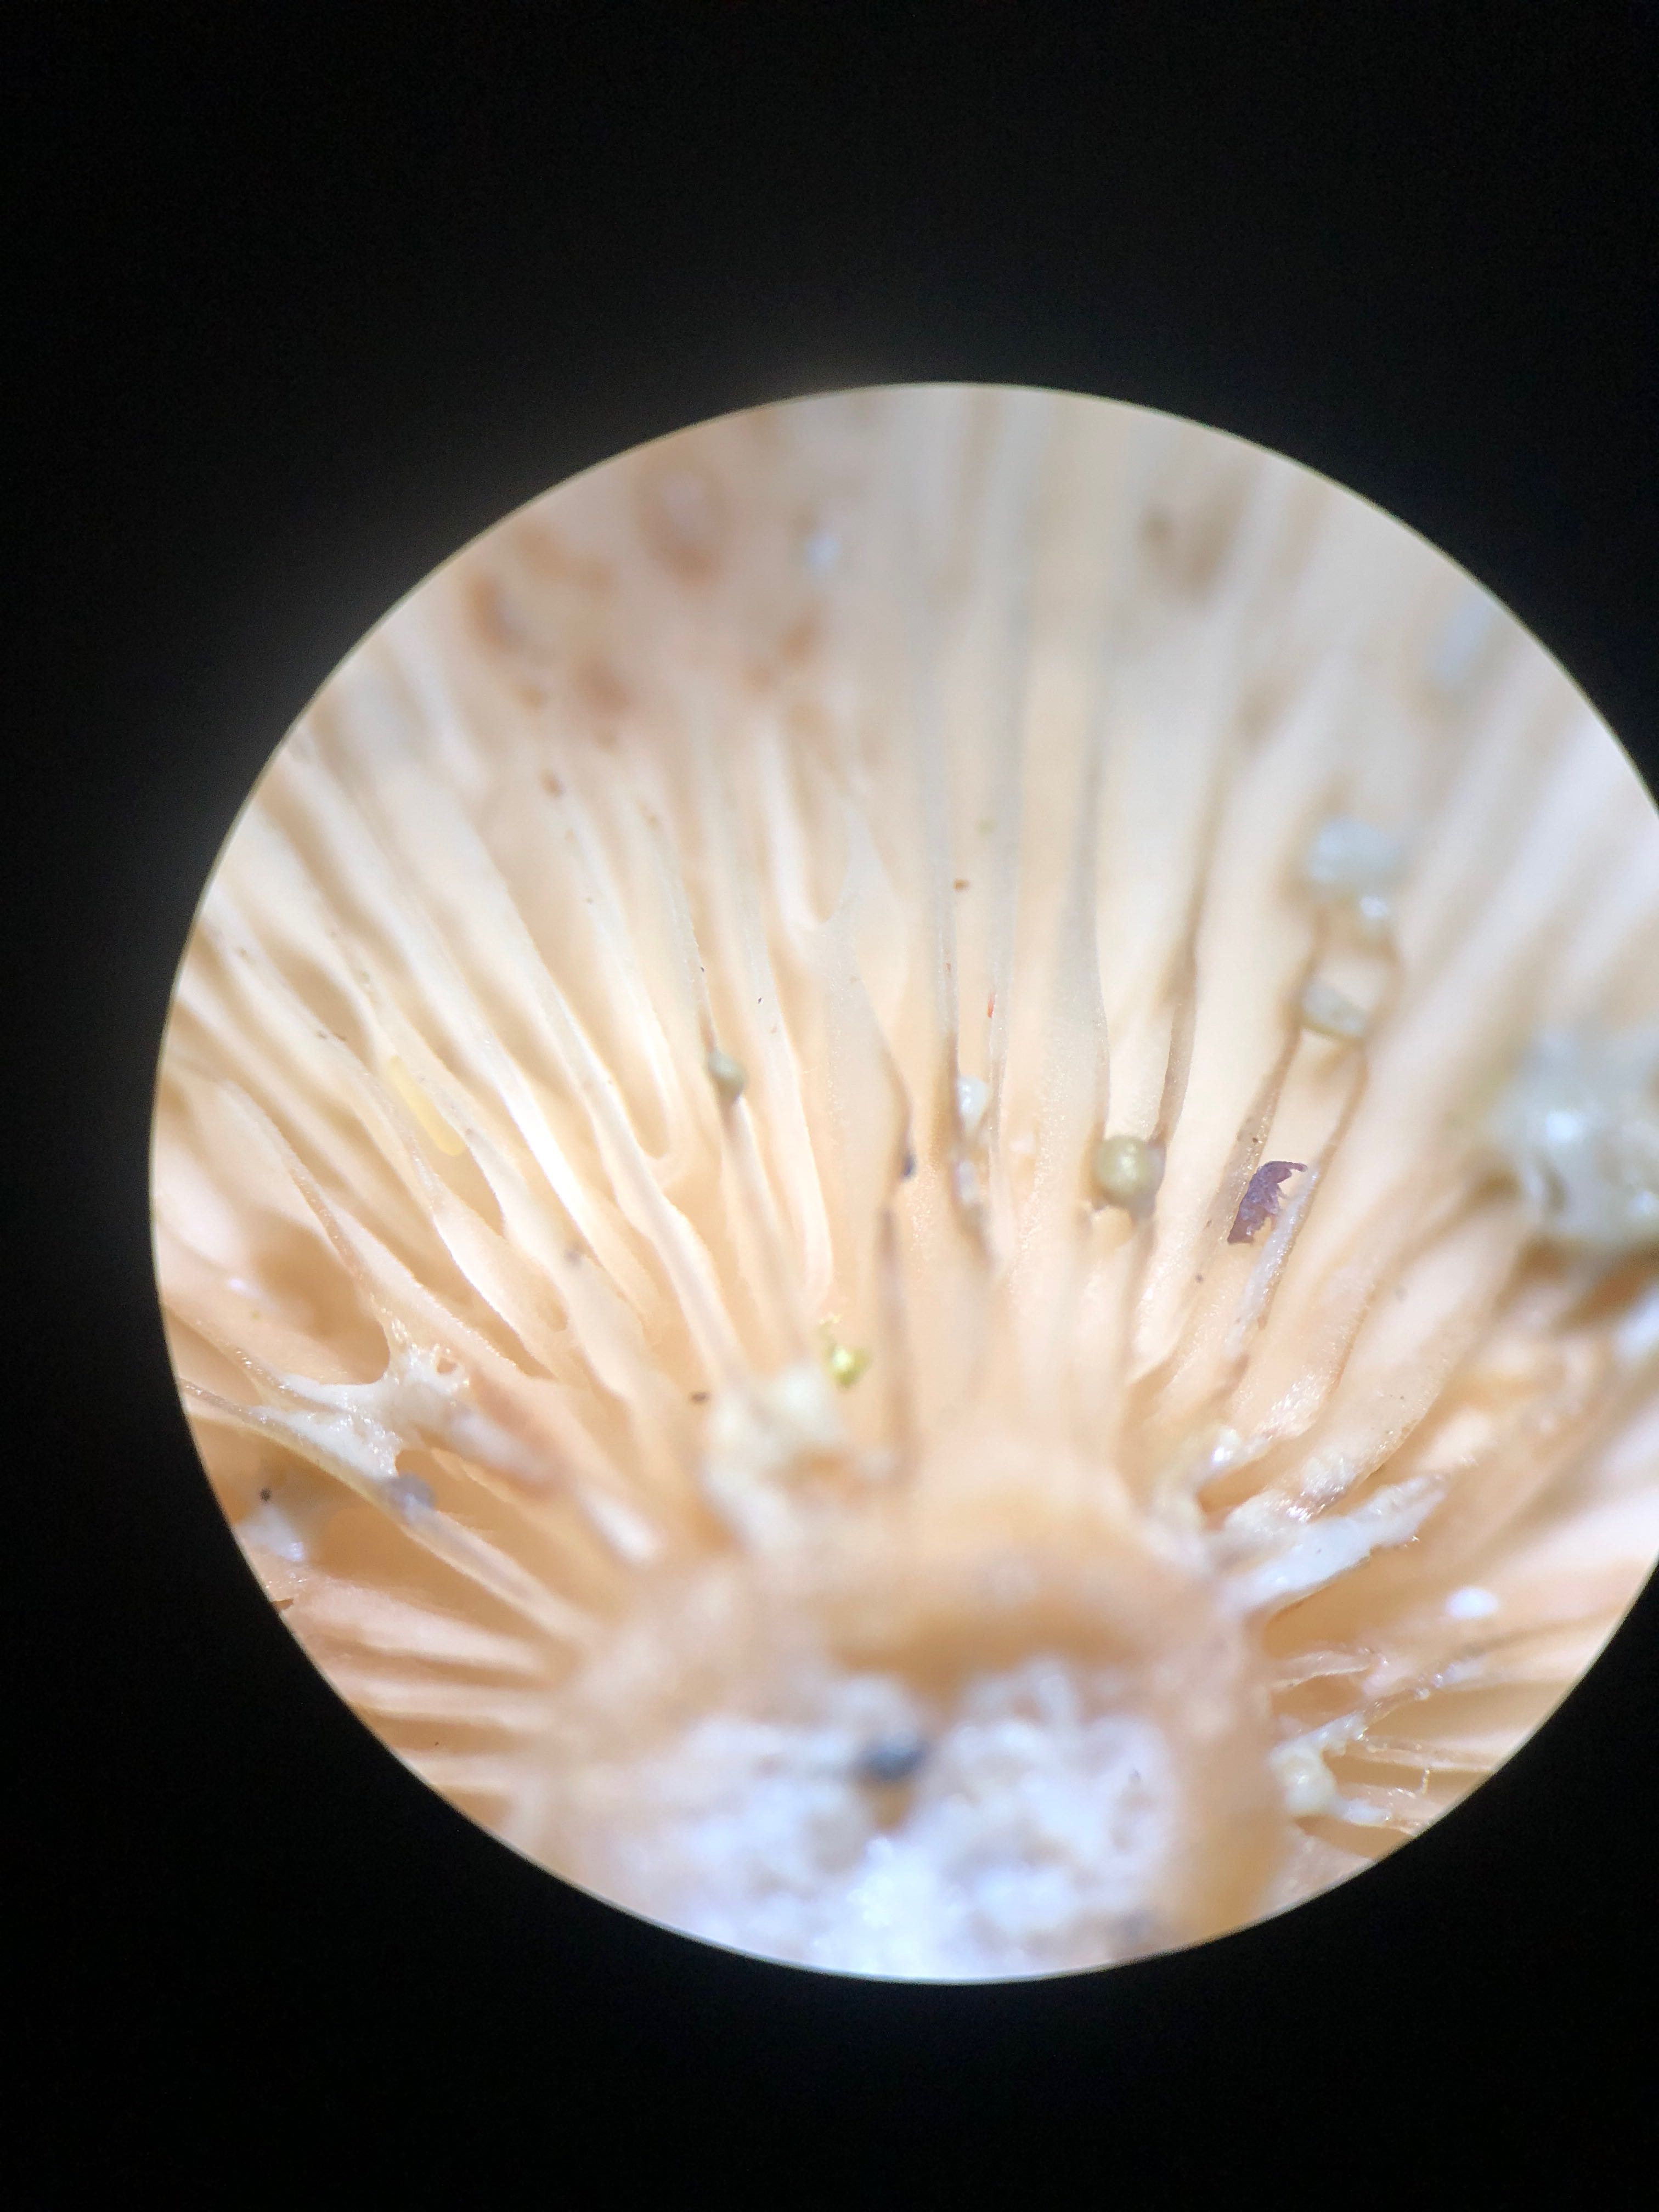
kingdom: Fungi
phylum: Basidiomycota
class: Agaricomycetes
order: Russulales
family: Russulaceae
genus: Lactarius
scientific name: Lactarius vietus
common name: violetgrå mælkehat
